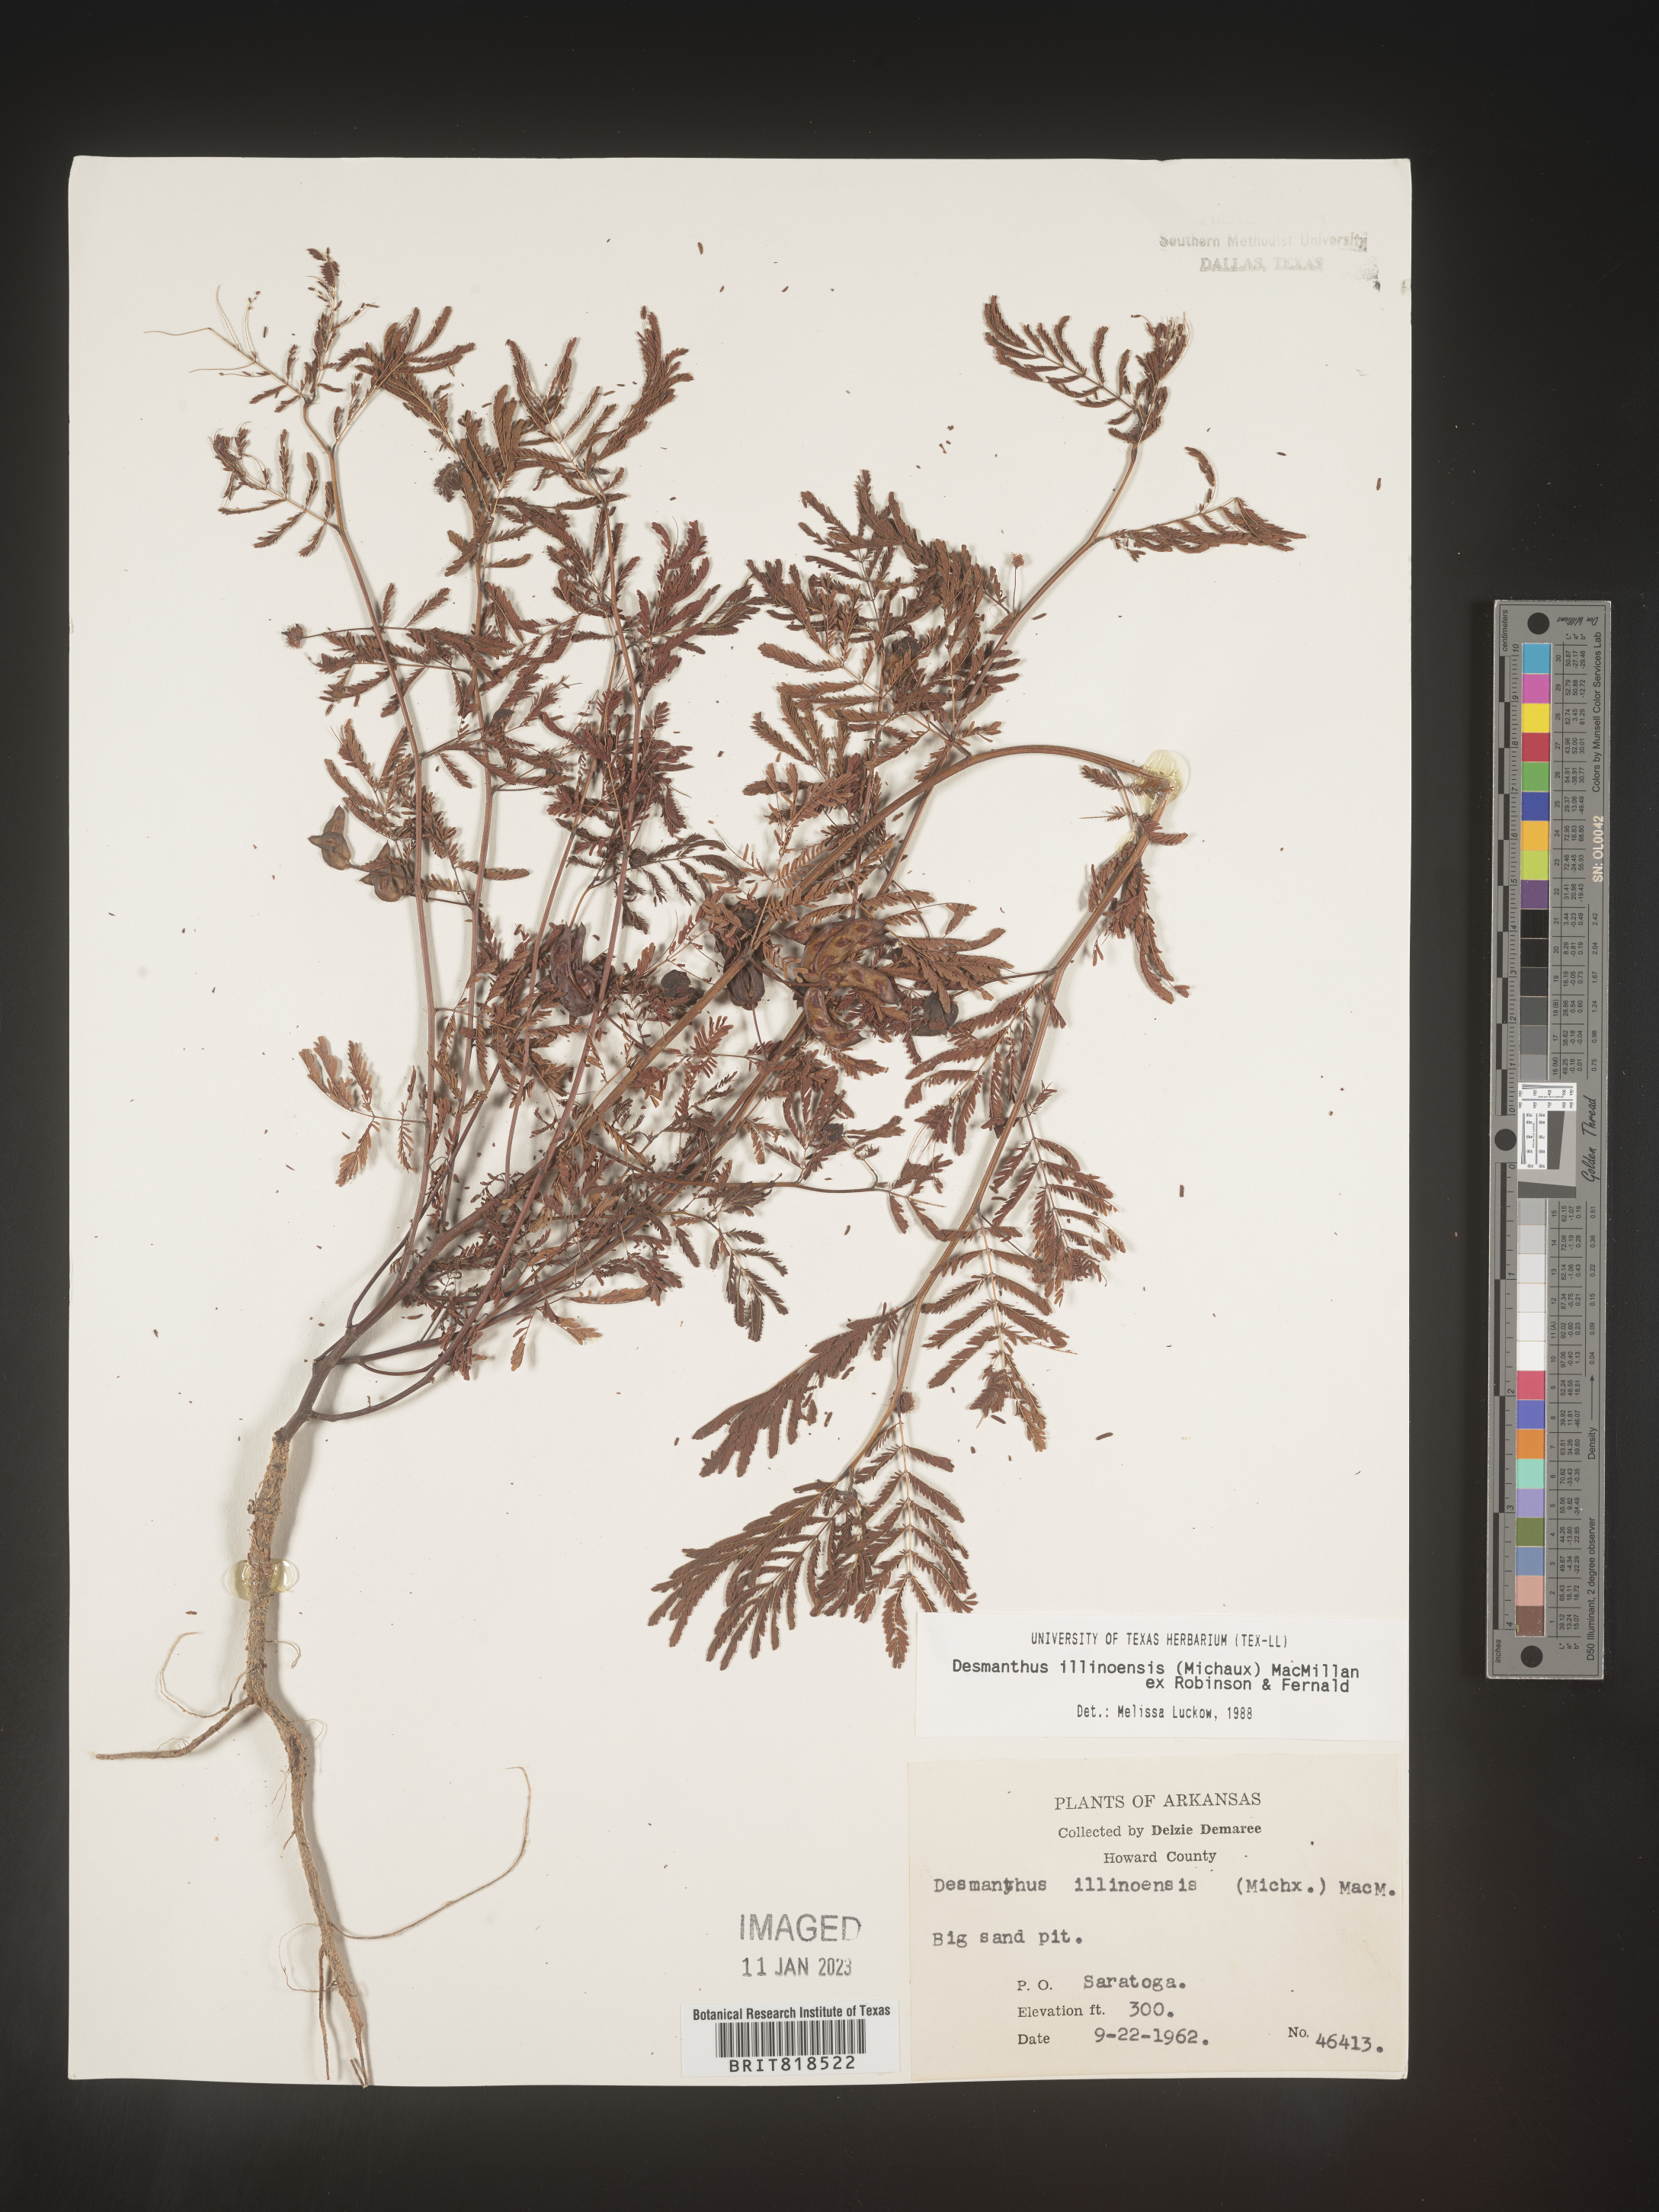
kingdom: Plantae
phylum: Tracheophyta
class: Magnoliopsida
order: Fabales
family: Fabaceae
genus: Desmanthus
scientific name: Desmanthus illinoensis
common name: Illinois bundle-flower
